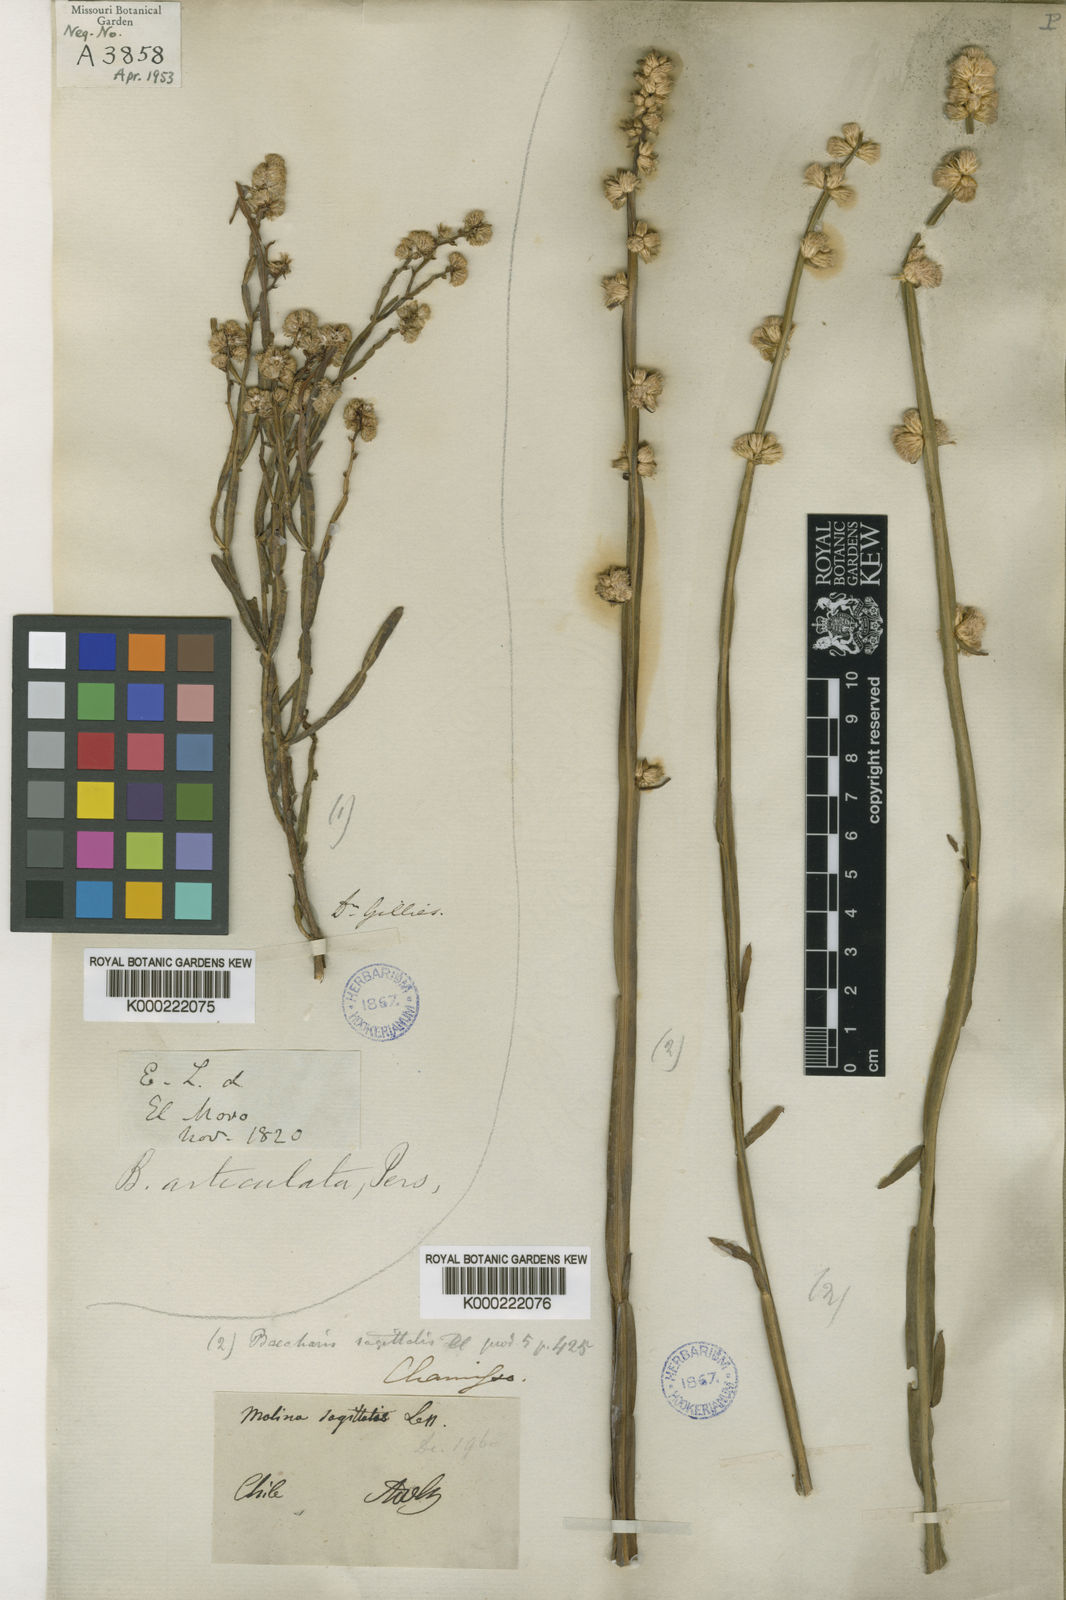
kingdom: Plantae
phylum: Tracheophyta
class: Magnoliopsida
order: Asterales
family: Asteraceae
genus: Baccharis
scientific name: Baccharis sagittalis
